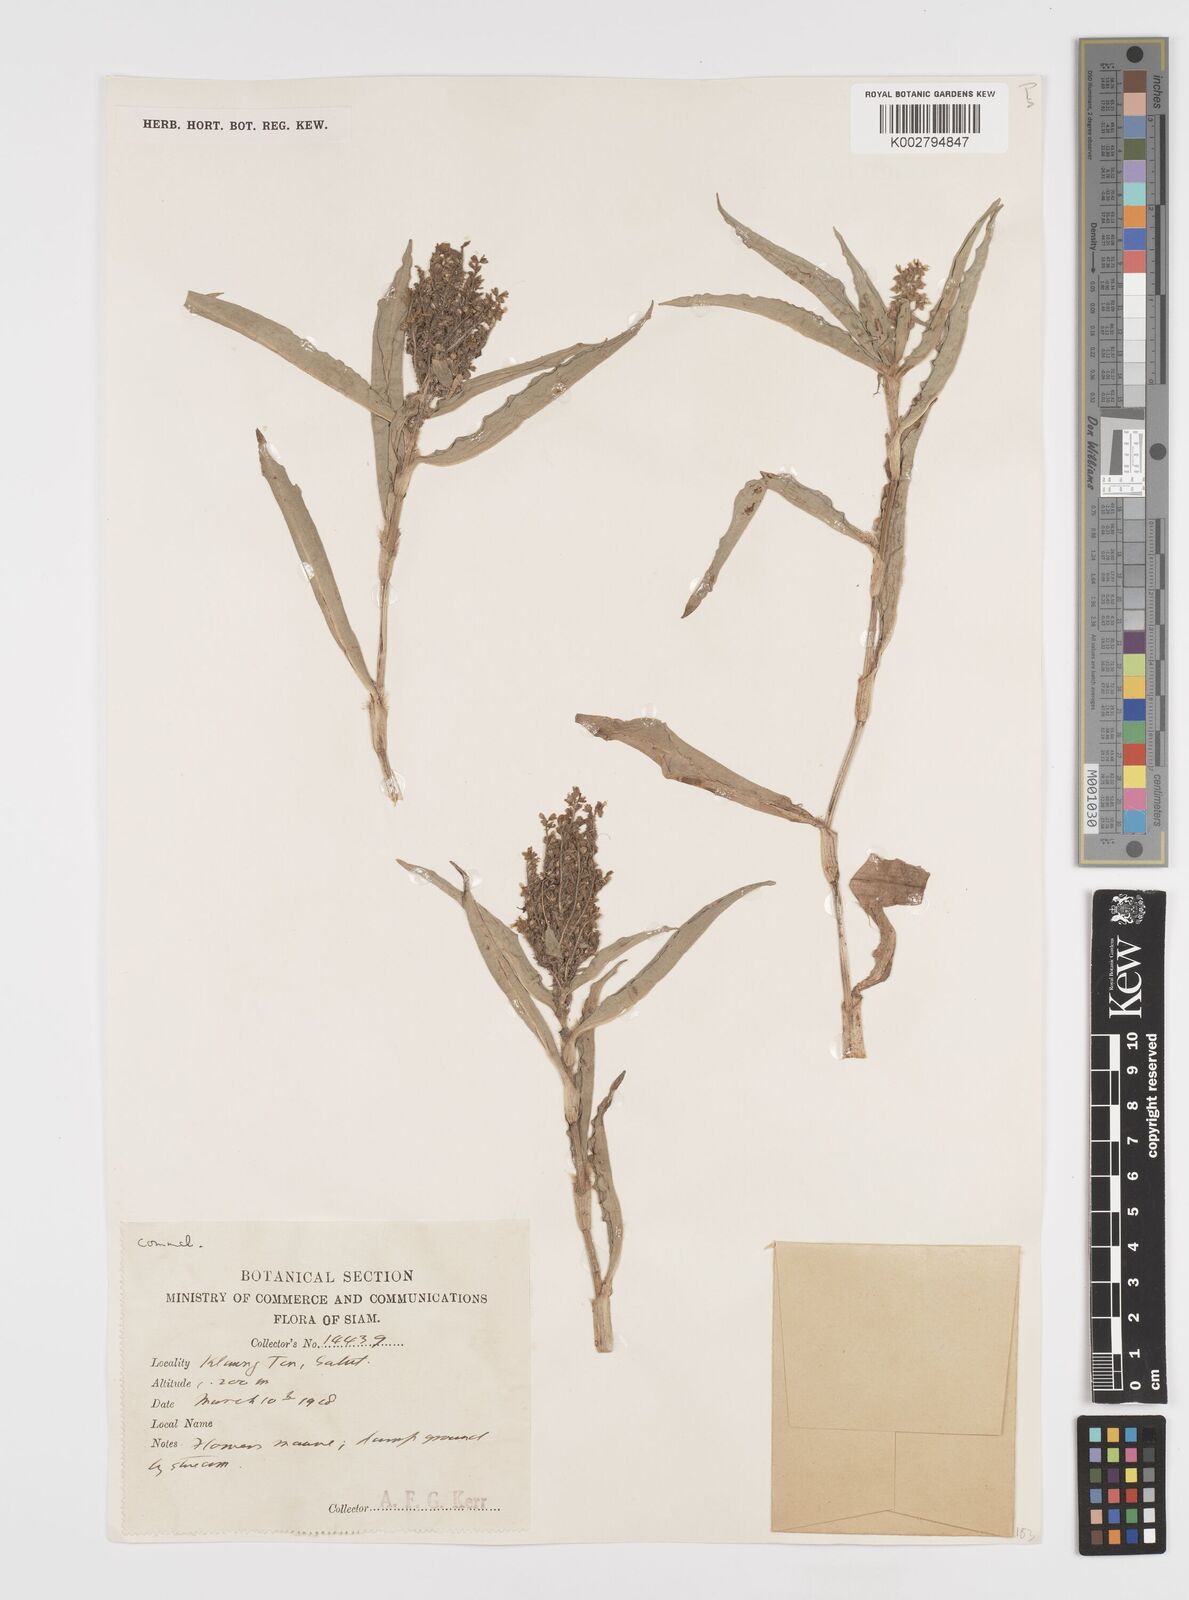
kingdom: Plantae
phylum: Tracheophyta
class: Liliopsida
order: Commelinales
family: Commelinaceae
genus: Floscopa
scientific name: Floscopa scandens
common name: Climbing flower cup
